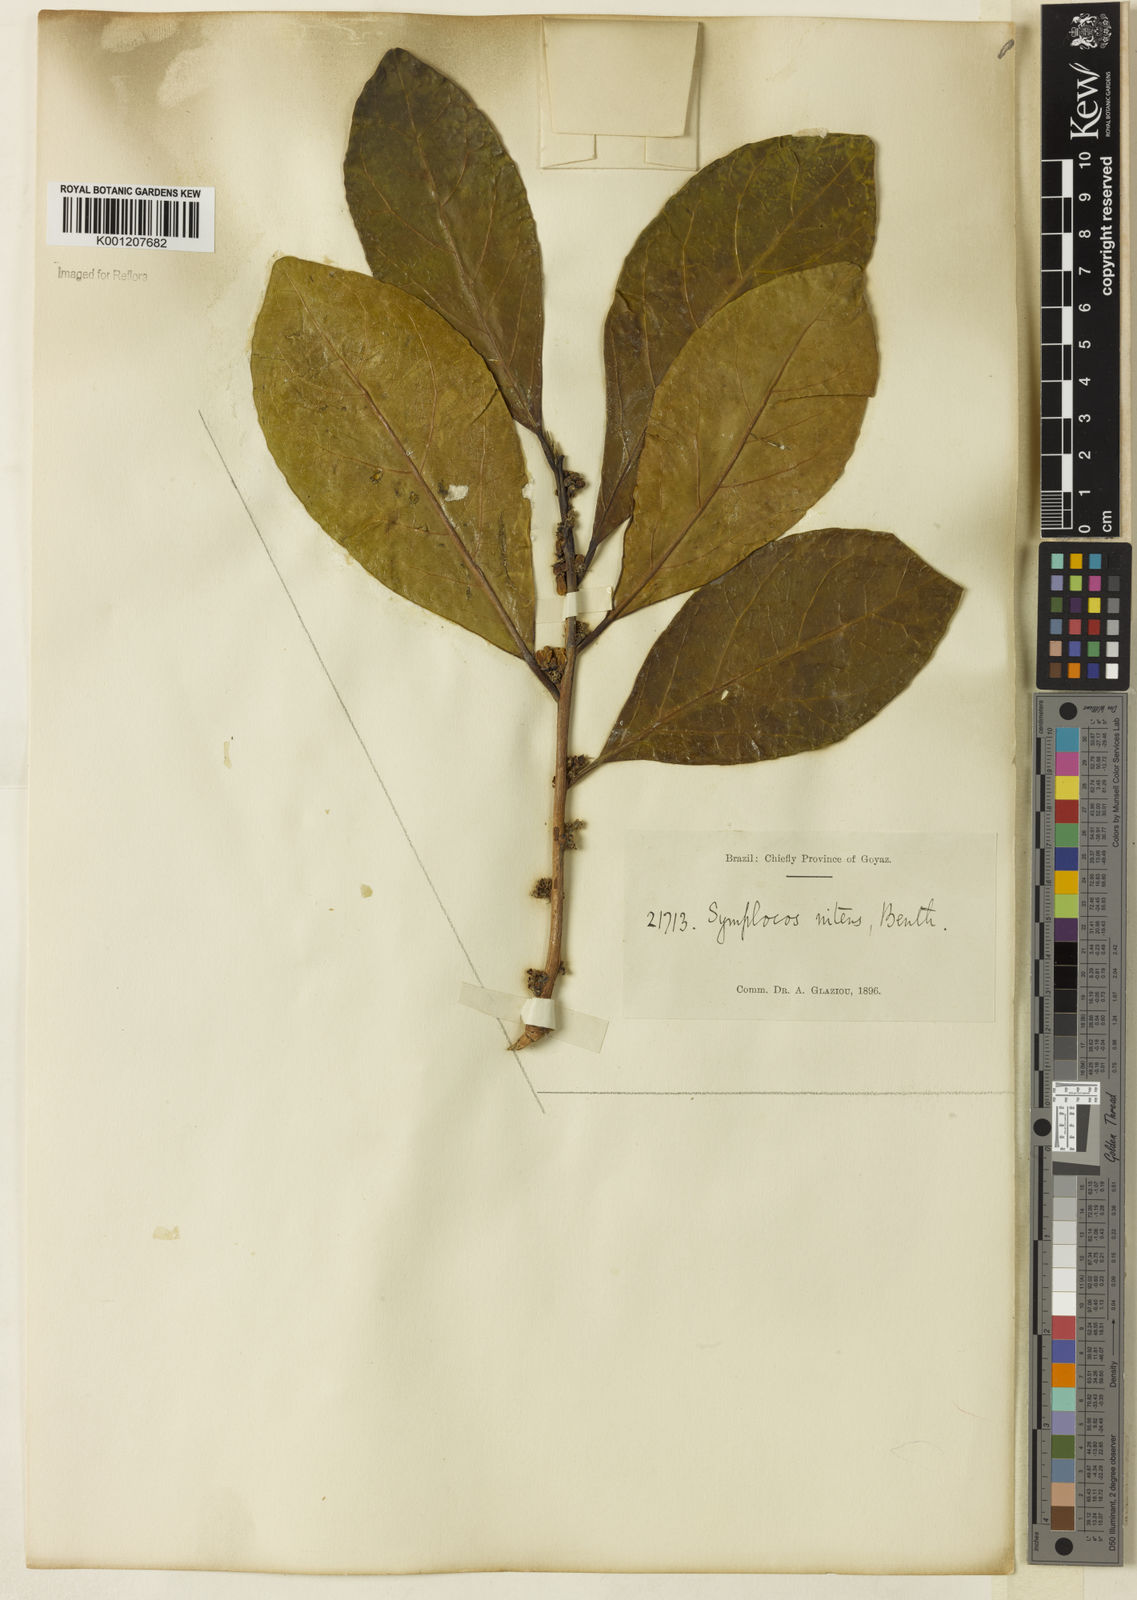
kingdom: Plantae
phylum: Tracheophyta
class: Magnoliopsida
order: Ericales
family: Symplocaceae
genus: Symplocos
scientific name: Symplocos nitens
